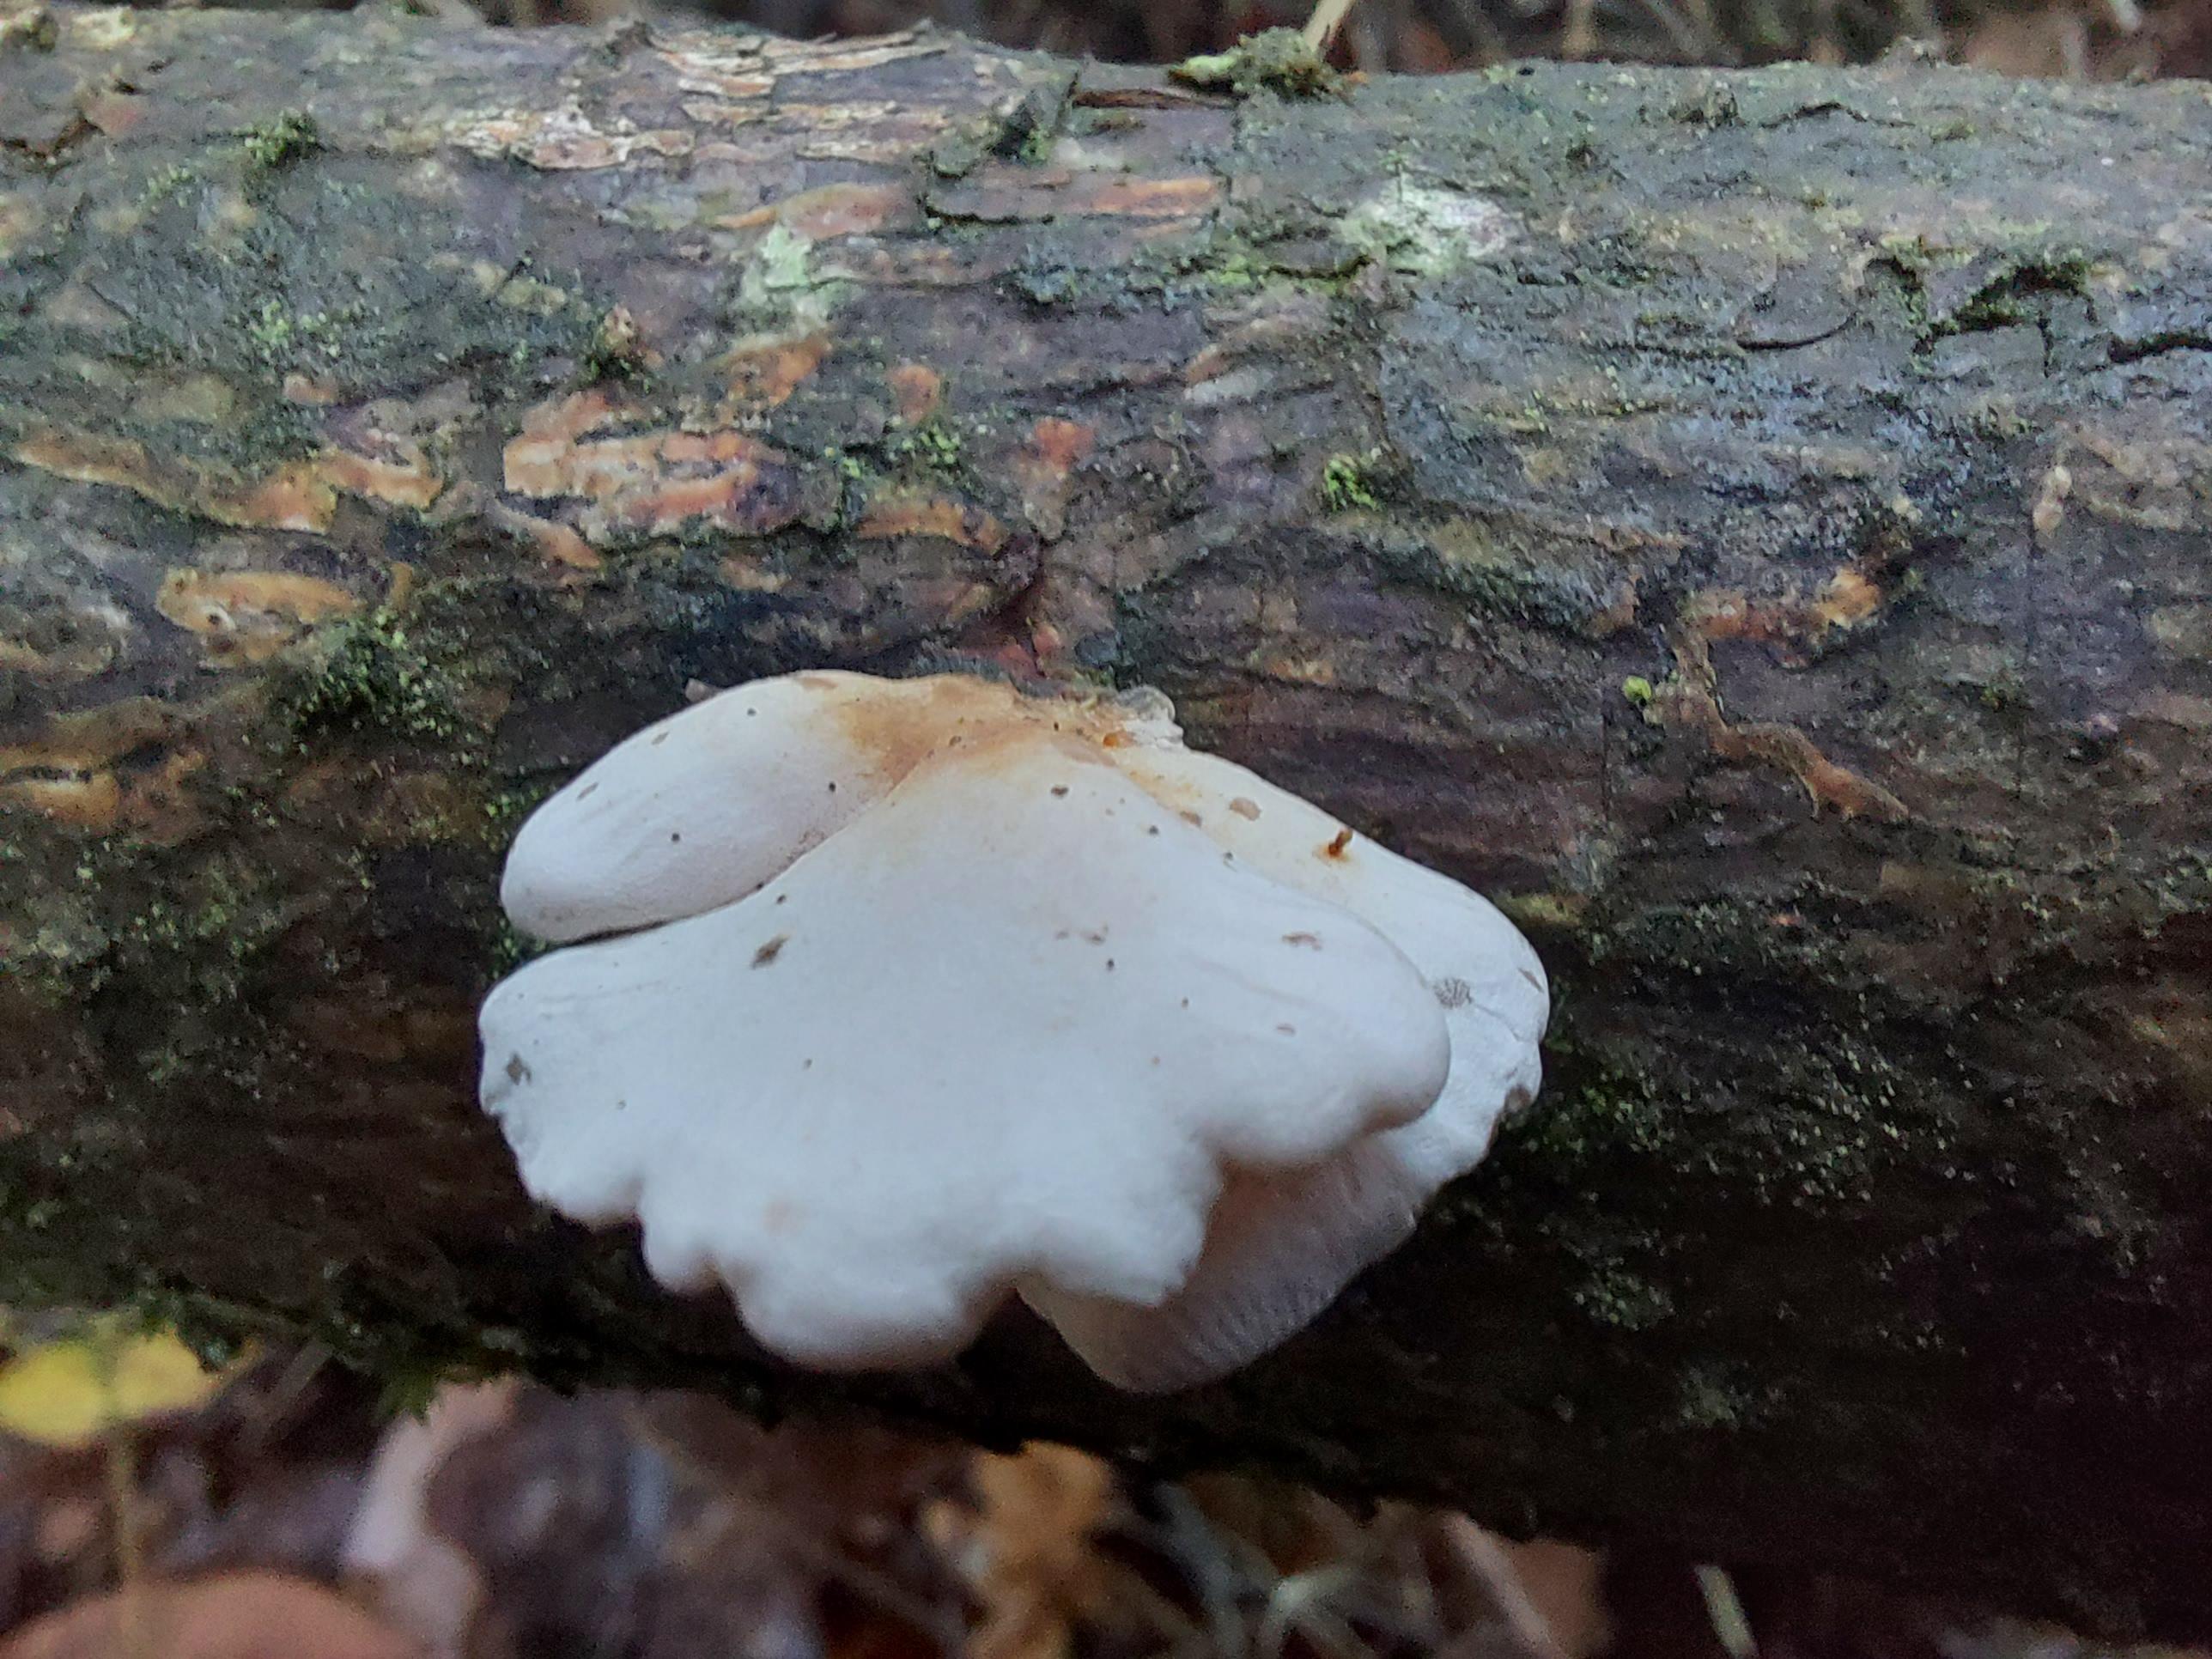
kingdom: Fungi
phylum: Basidiomycota
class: Agaricomycetes
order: Agaricales
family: Mycenaceae
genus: Panellus
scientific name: Panellus mitis
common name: mild epaulethat
